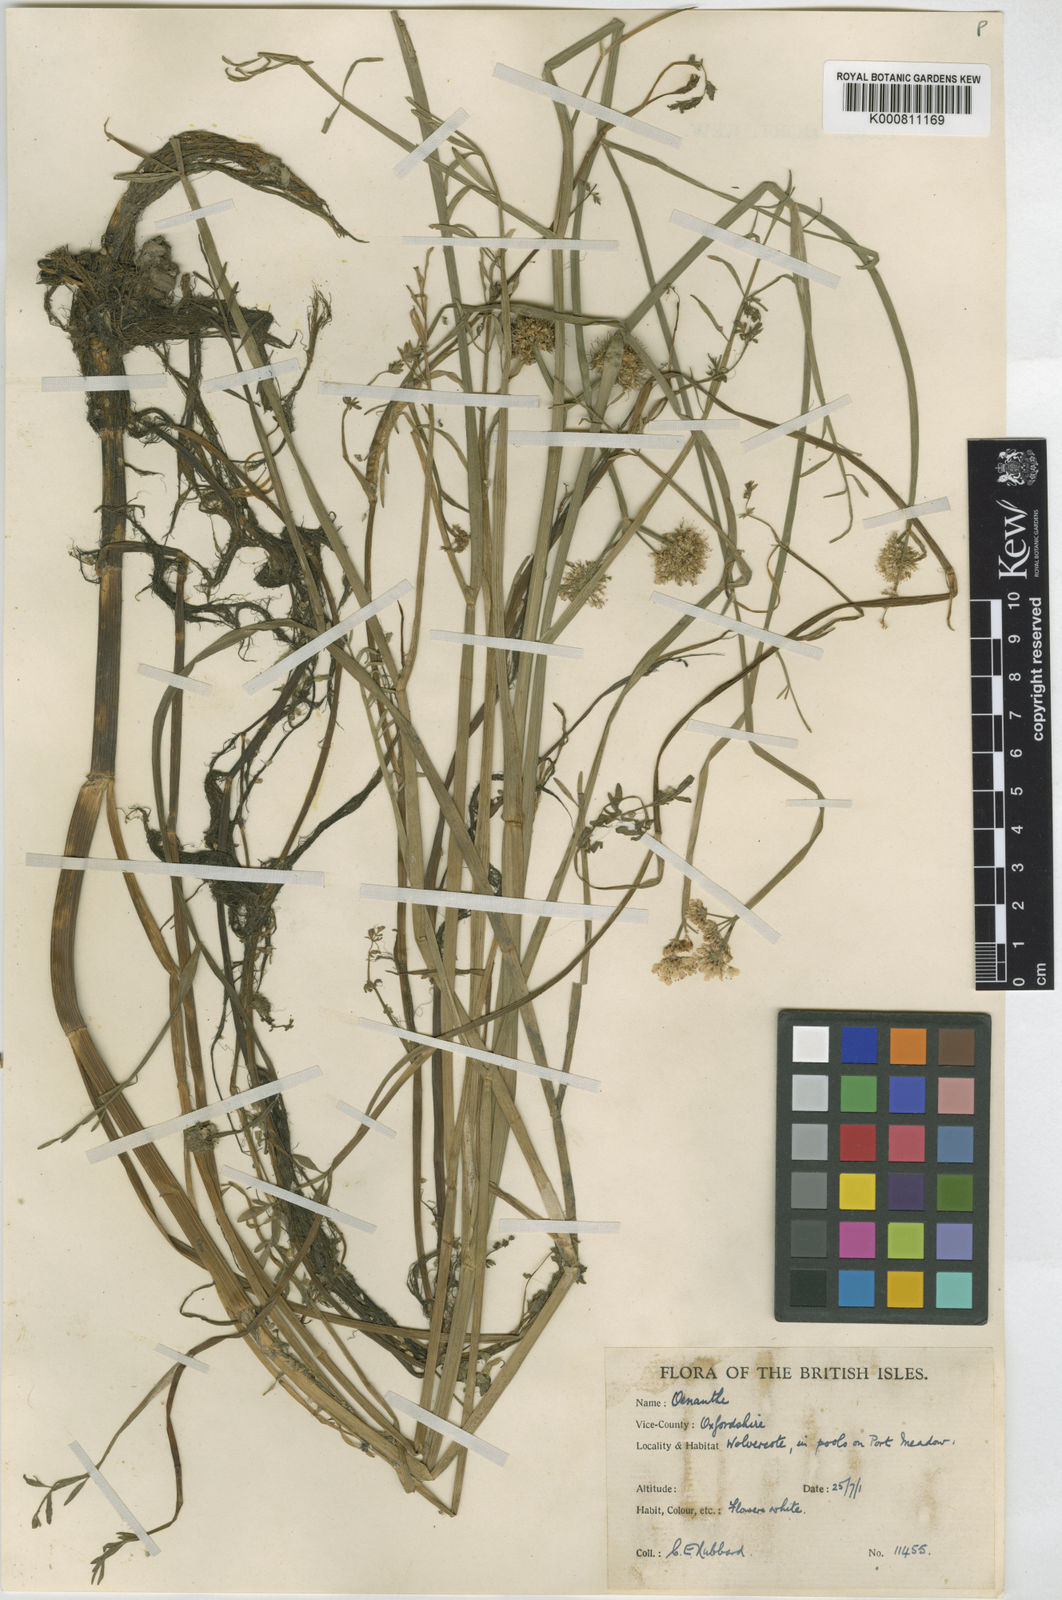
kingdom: Plantae
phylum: Tracheophyta
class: Magnoliopsida
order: Apiales
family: Apiaceae
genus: Oenanthe
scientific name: Oenanthe fistulosa
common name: Tubular water-dropwort
